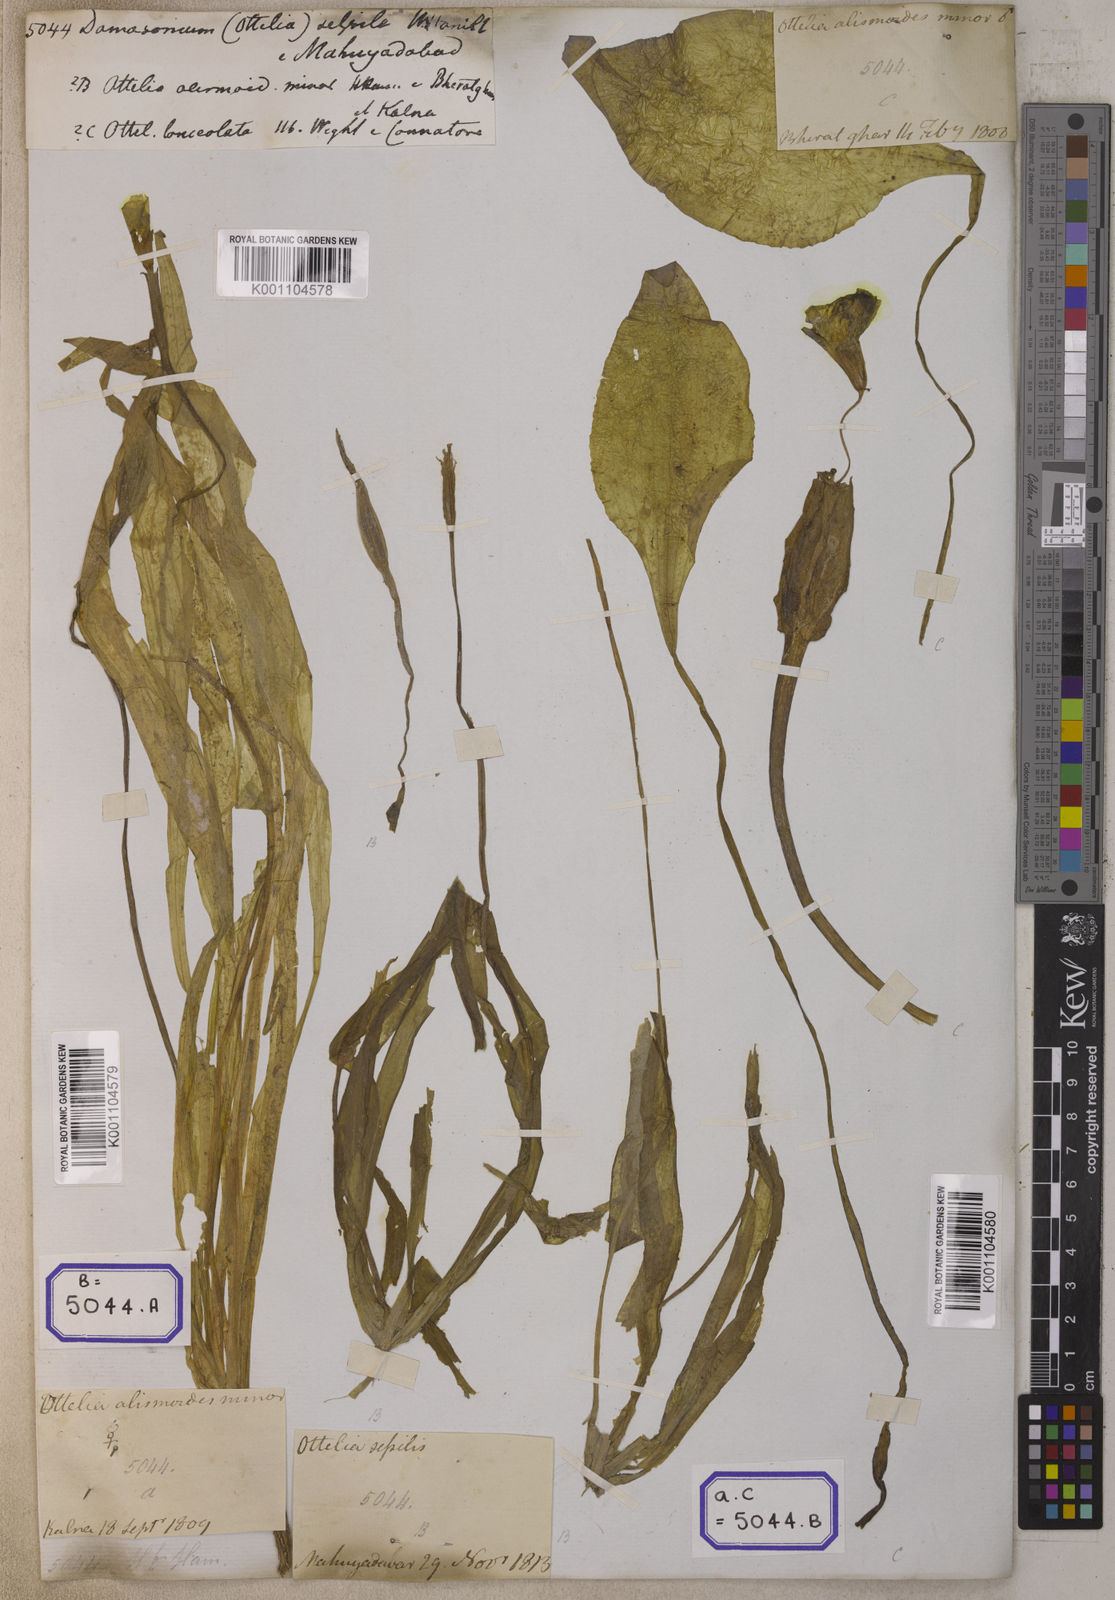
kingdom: Plantae
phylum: Tracheophyta
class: Liliopsida
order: Alismatales
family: Alismataceae
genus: Damasonium
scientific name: Damasonium
